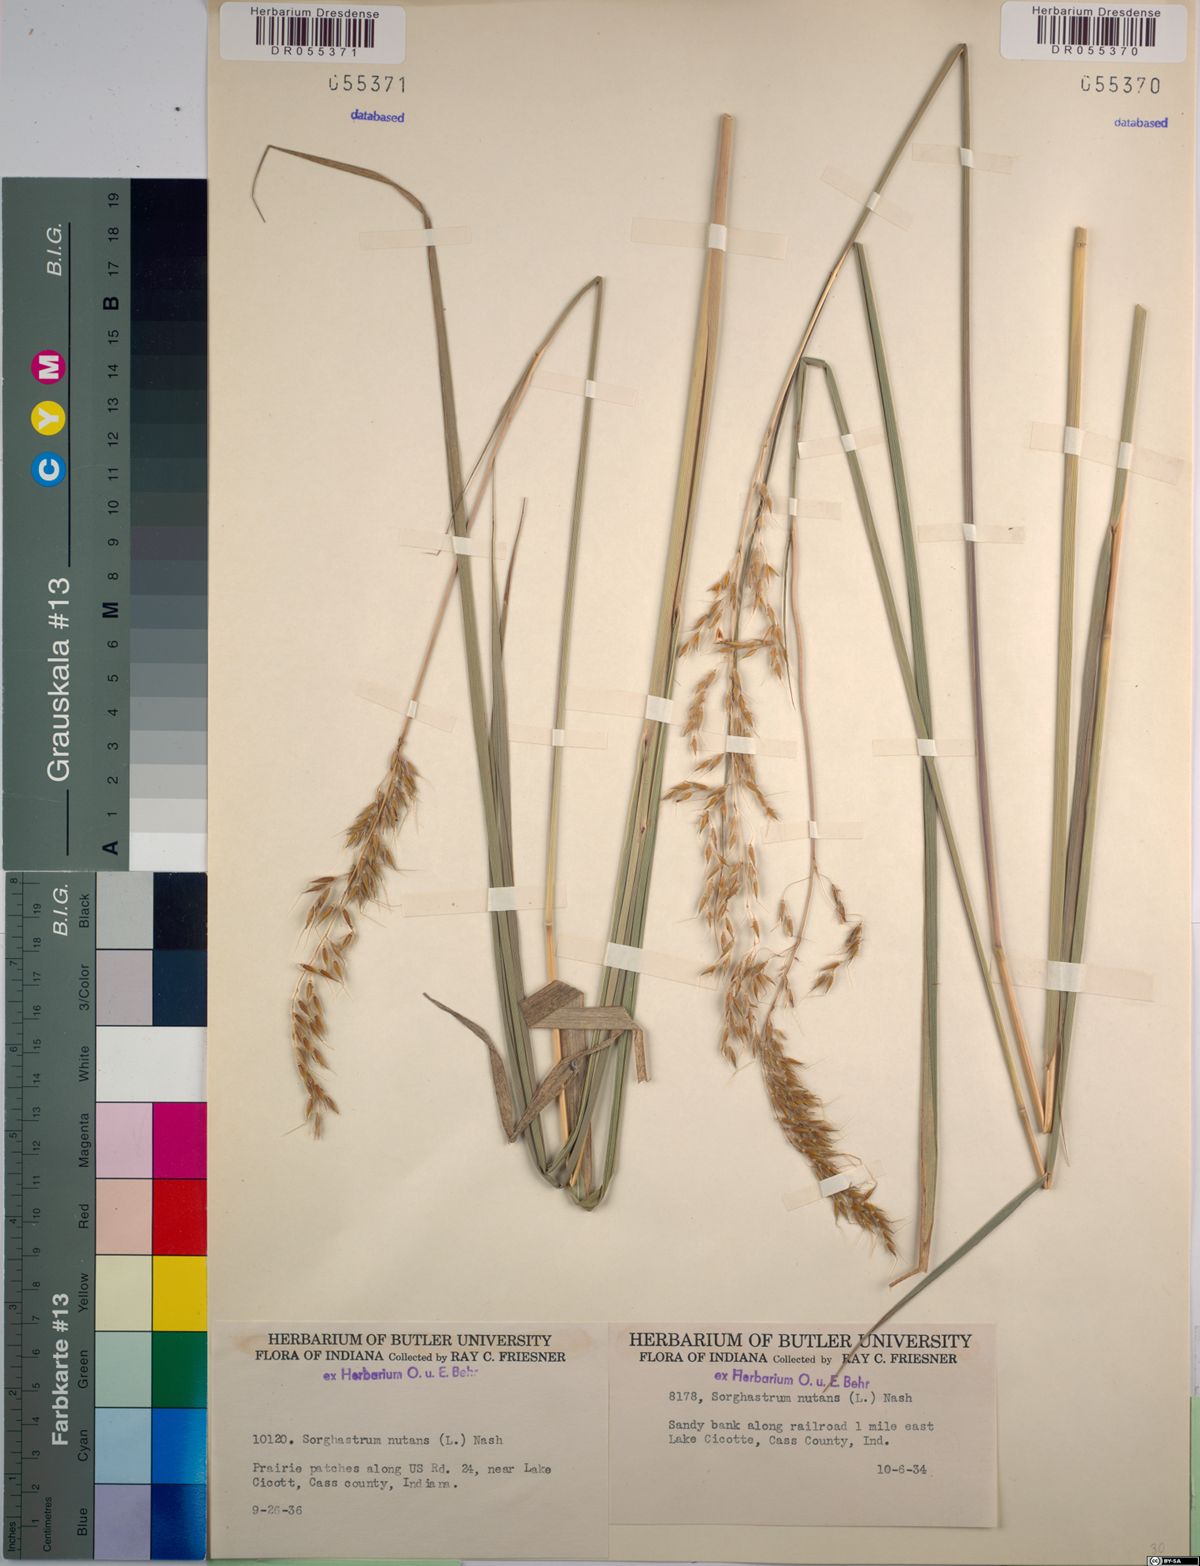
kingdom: Plantae
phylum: Tracheophyta
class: Liliopsida
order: Poales
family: Poaceae
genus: Sorghastrum
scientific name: Sorghastrum nutans
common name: Indian grass
